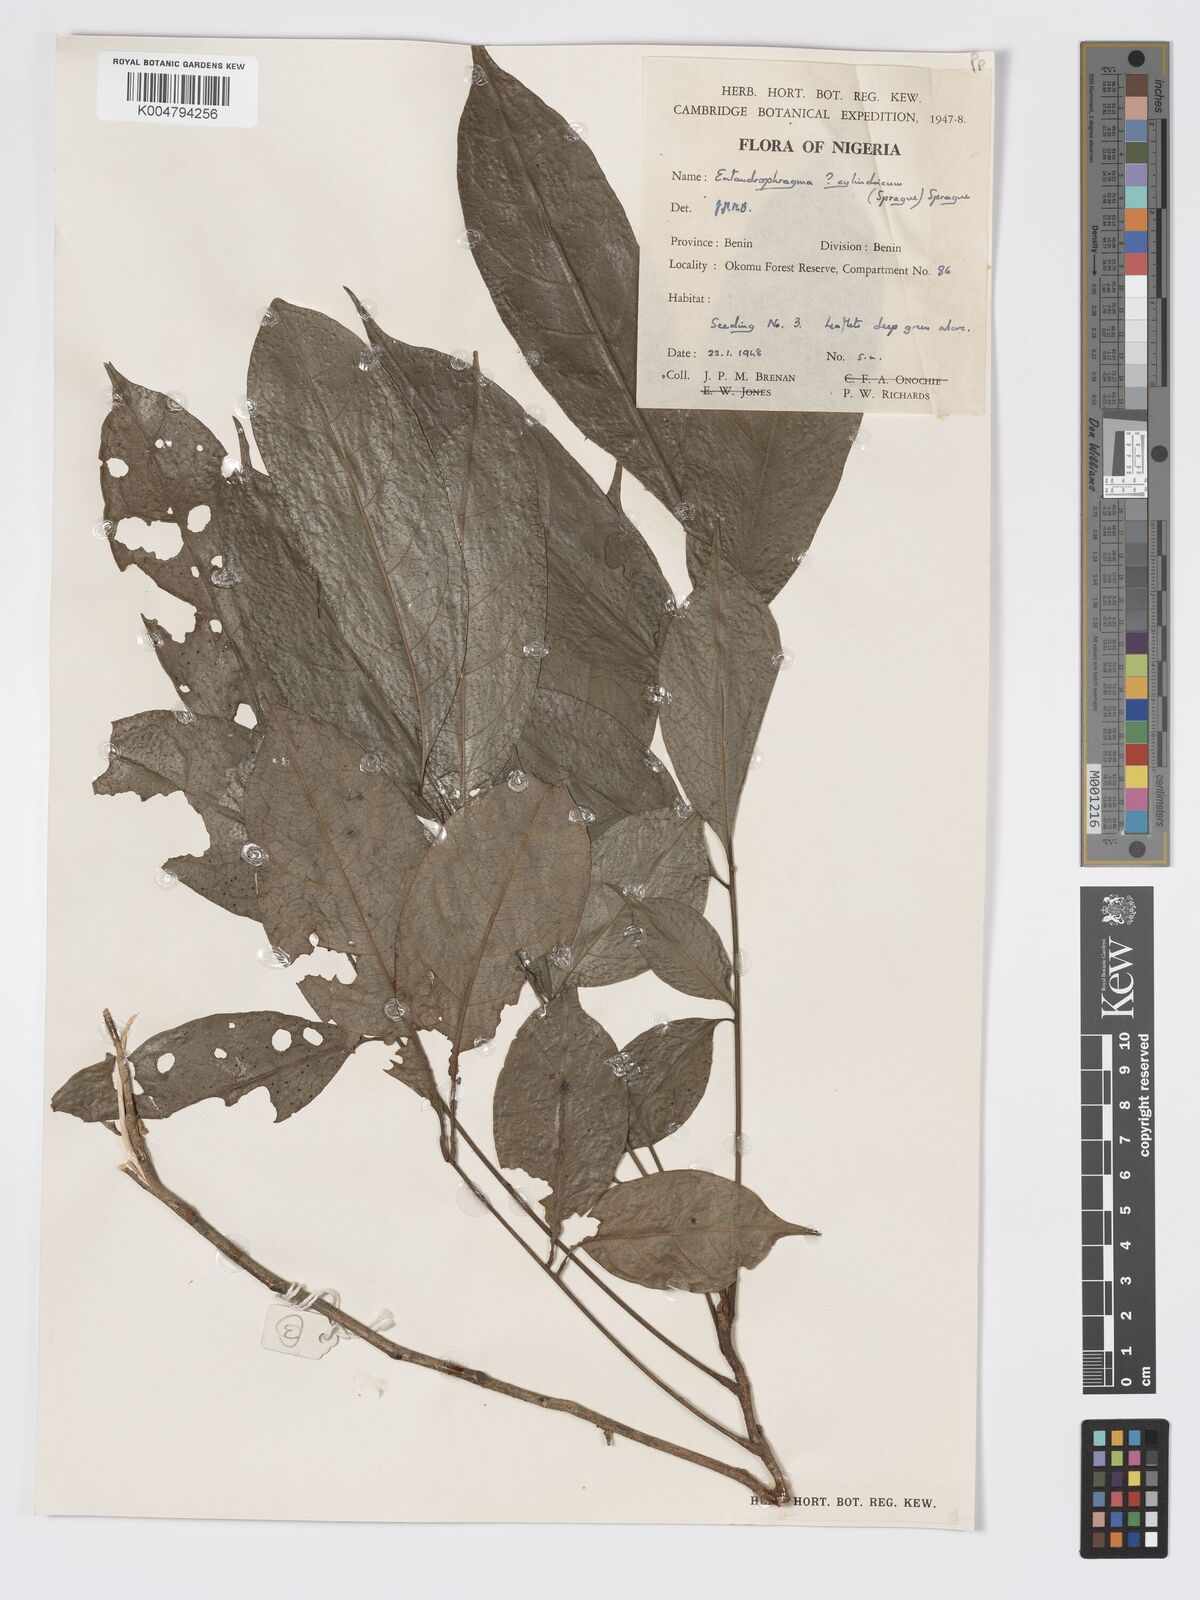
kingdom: Plantae
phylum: Tracheophyta
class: Magnoliopsida
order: Sapindales
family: Meliaceae
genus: Entandrophragma
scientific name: Entandrophragma cylindricum
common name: Sapele
